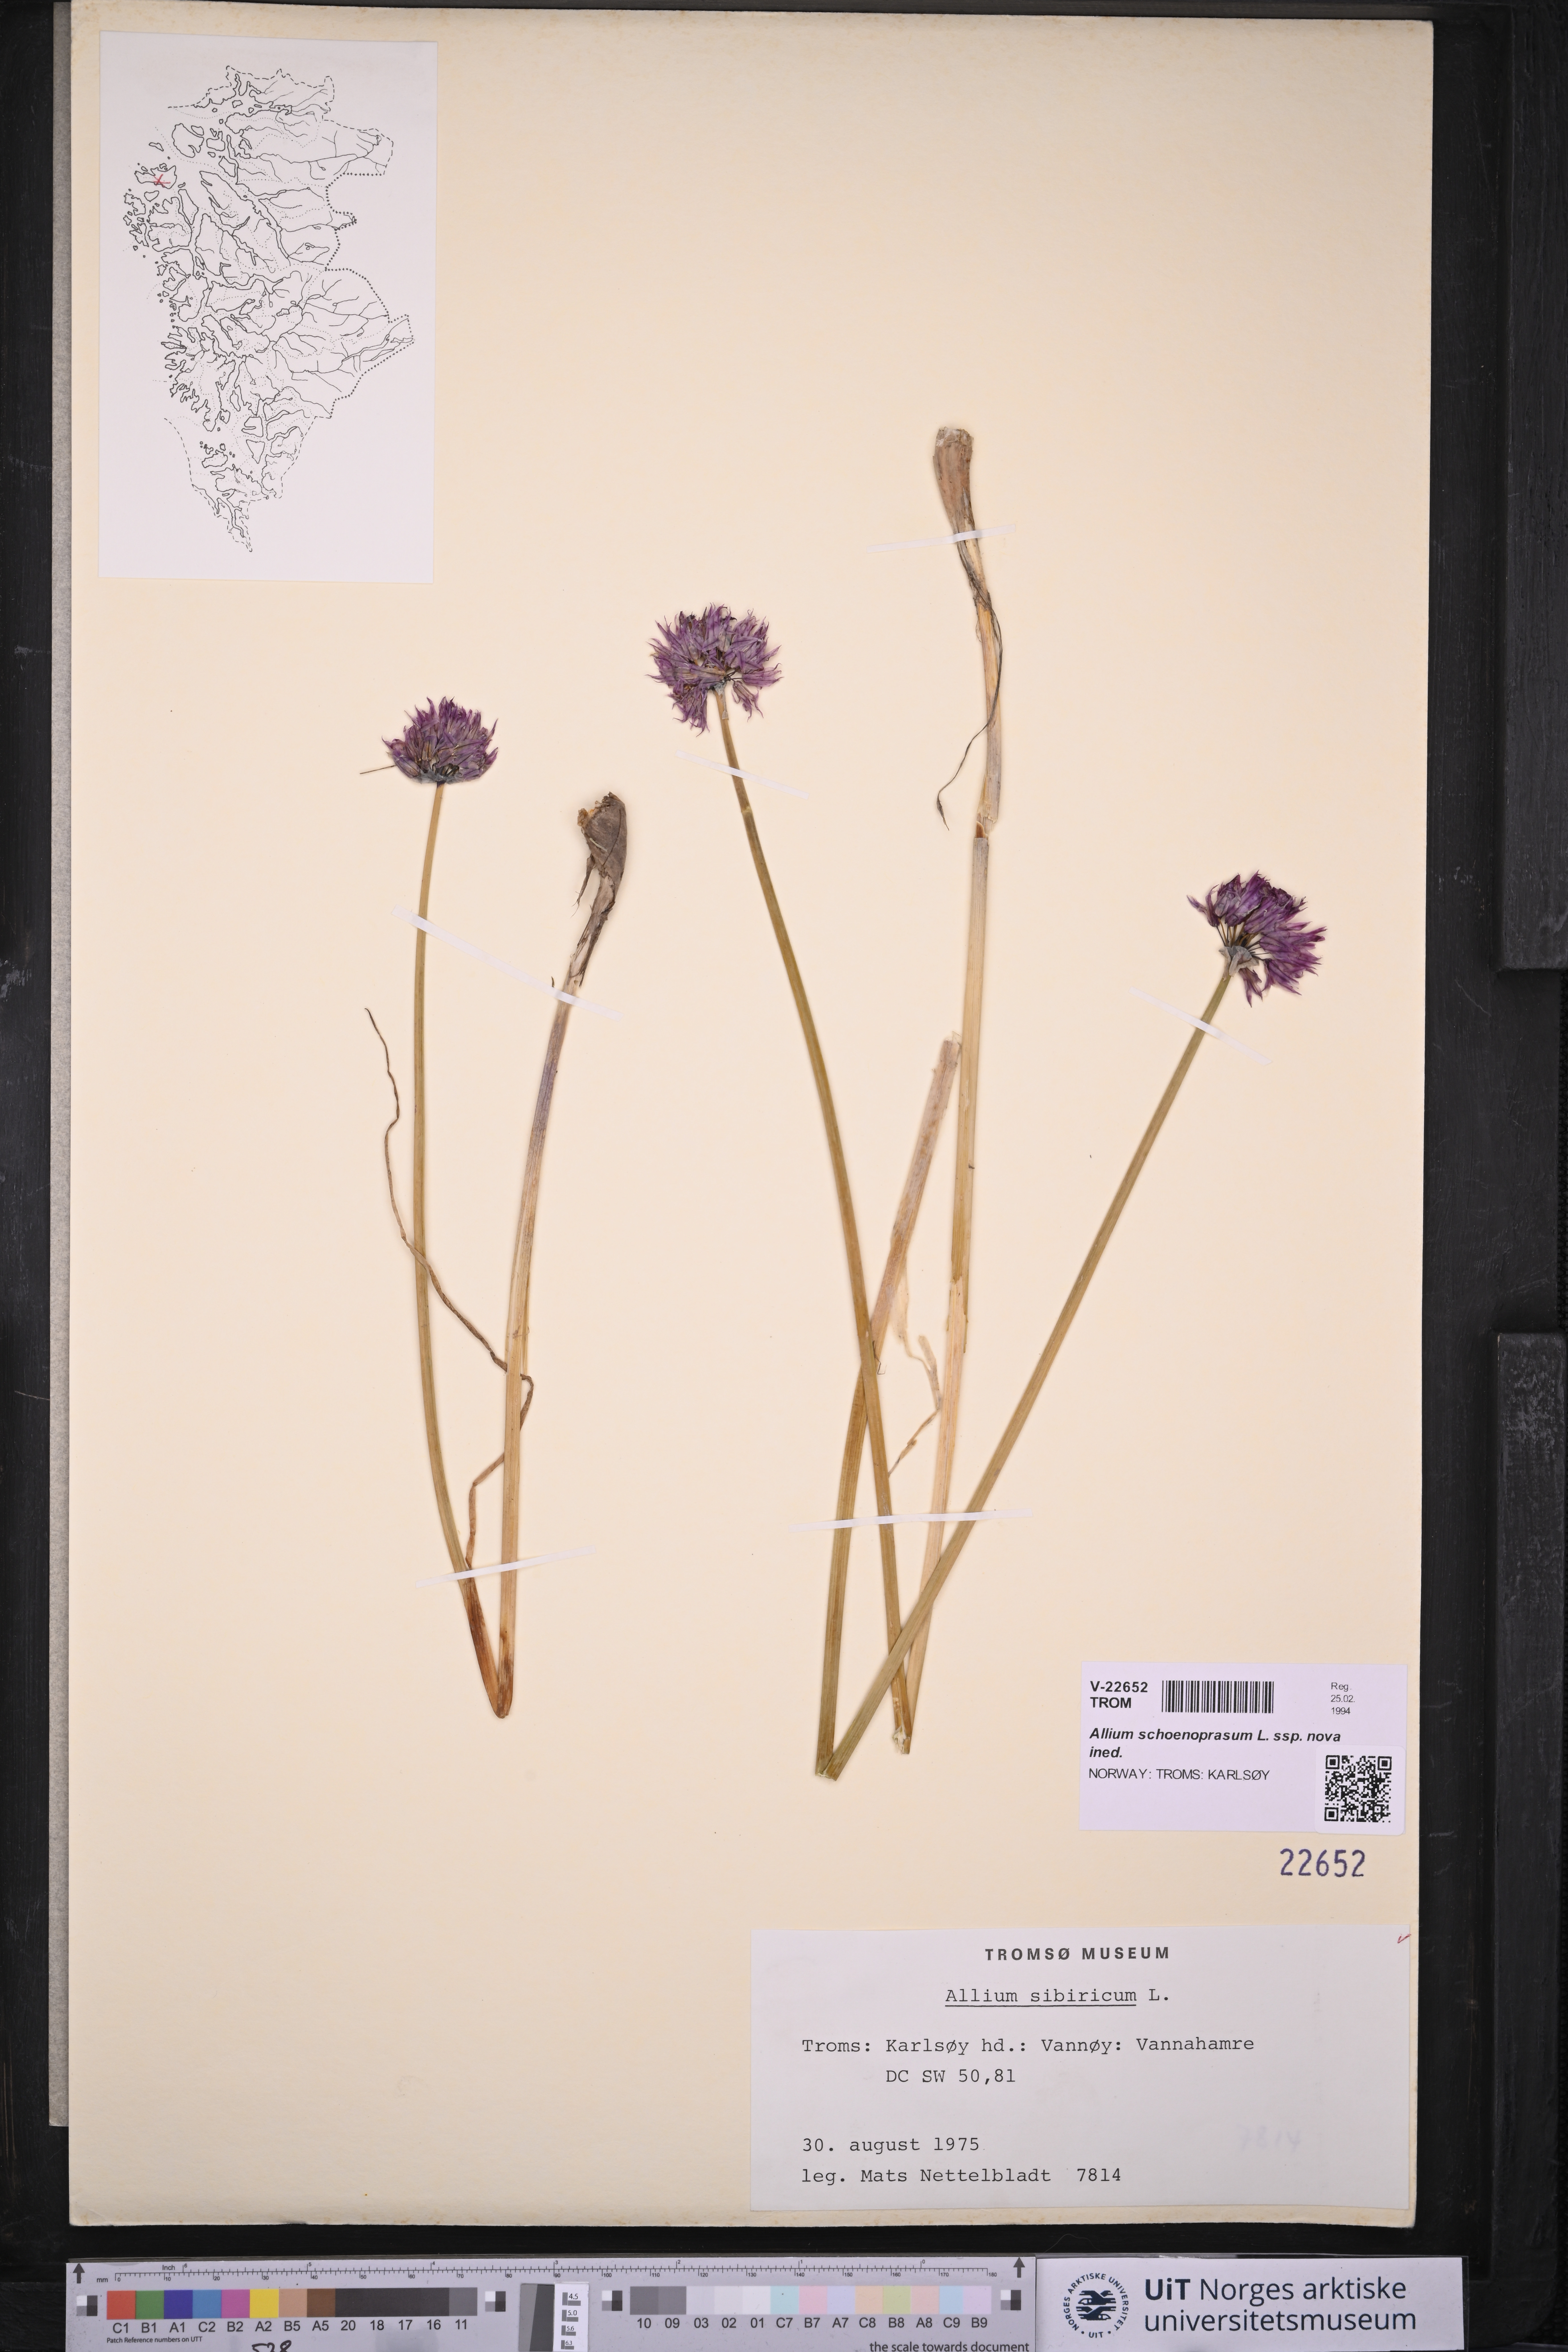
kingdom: Plantae
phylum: Tracheophyta
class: Liliopsida
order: Asparagales
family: Amaryllidaceae
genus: Allium
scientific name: Allium schoenoprasum
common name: Chives
